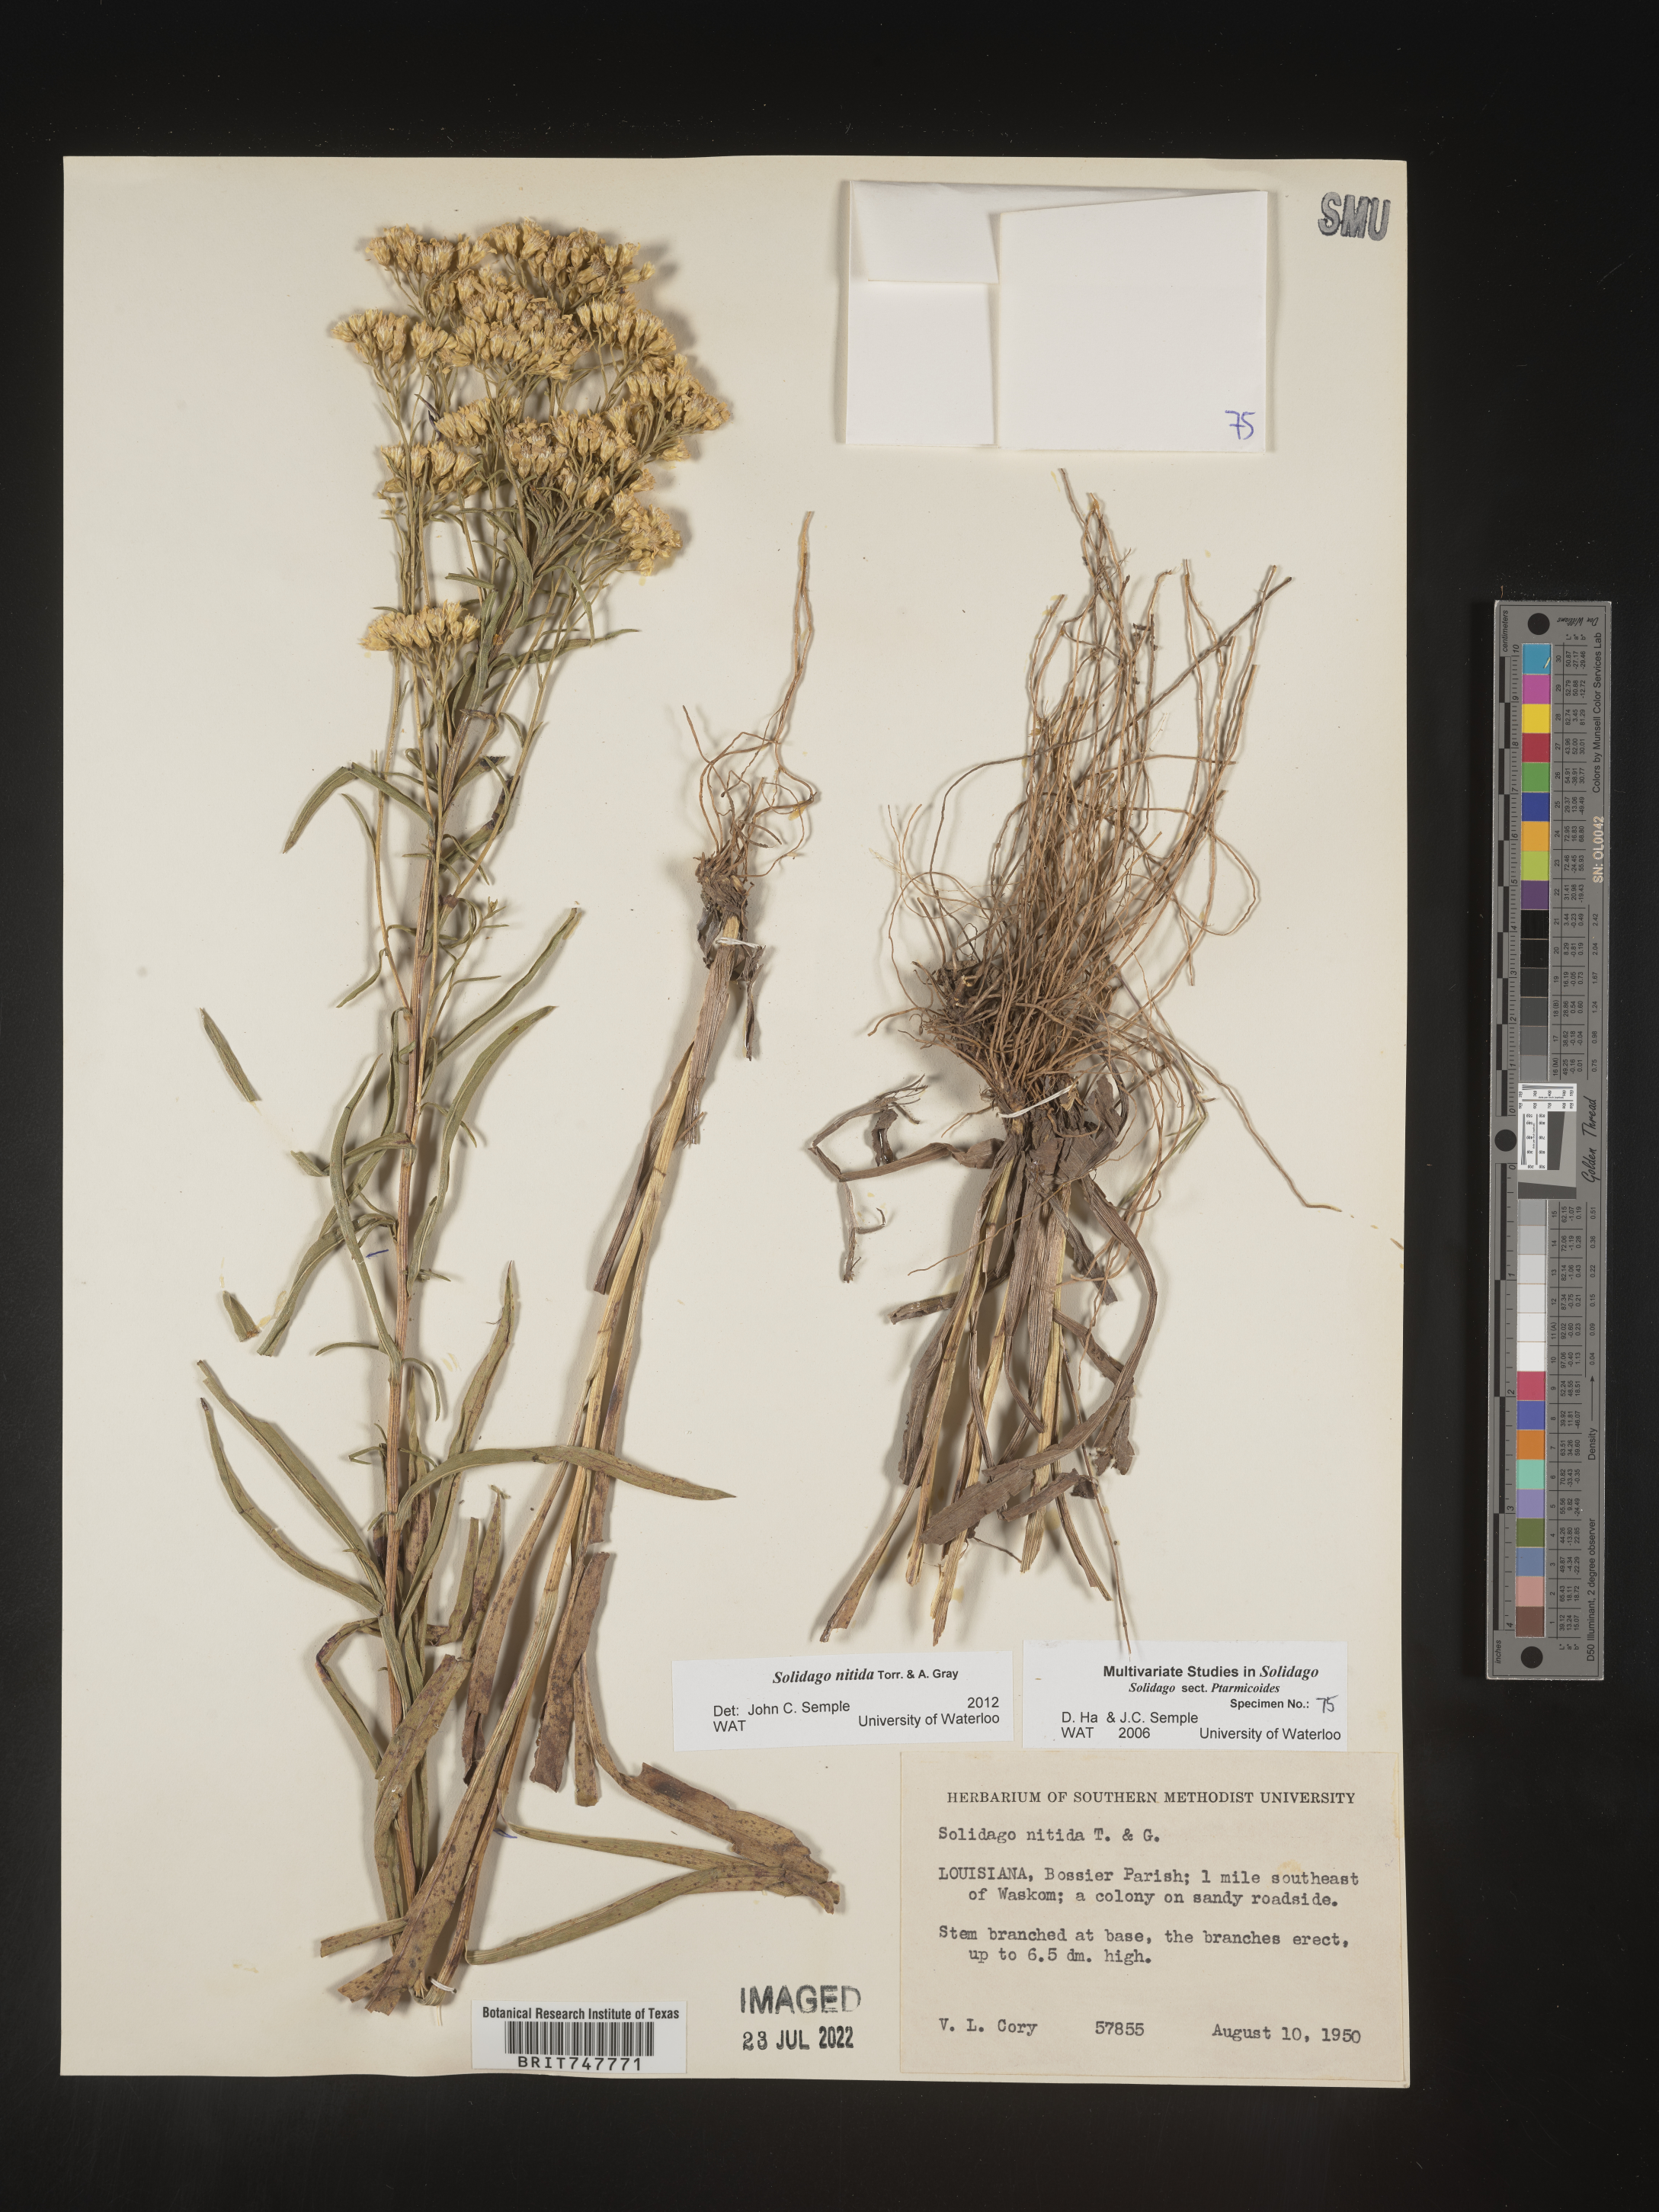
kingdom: Plantae
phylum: Tracheophyta
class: Magnoliopsida
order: Asterales
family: Asteraceae
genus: Solidago
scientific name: Solidago nitida
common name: Shiny goldenrod
